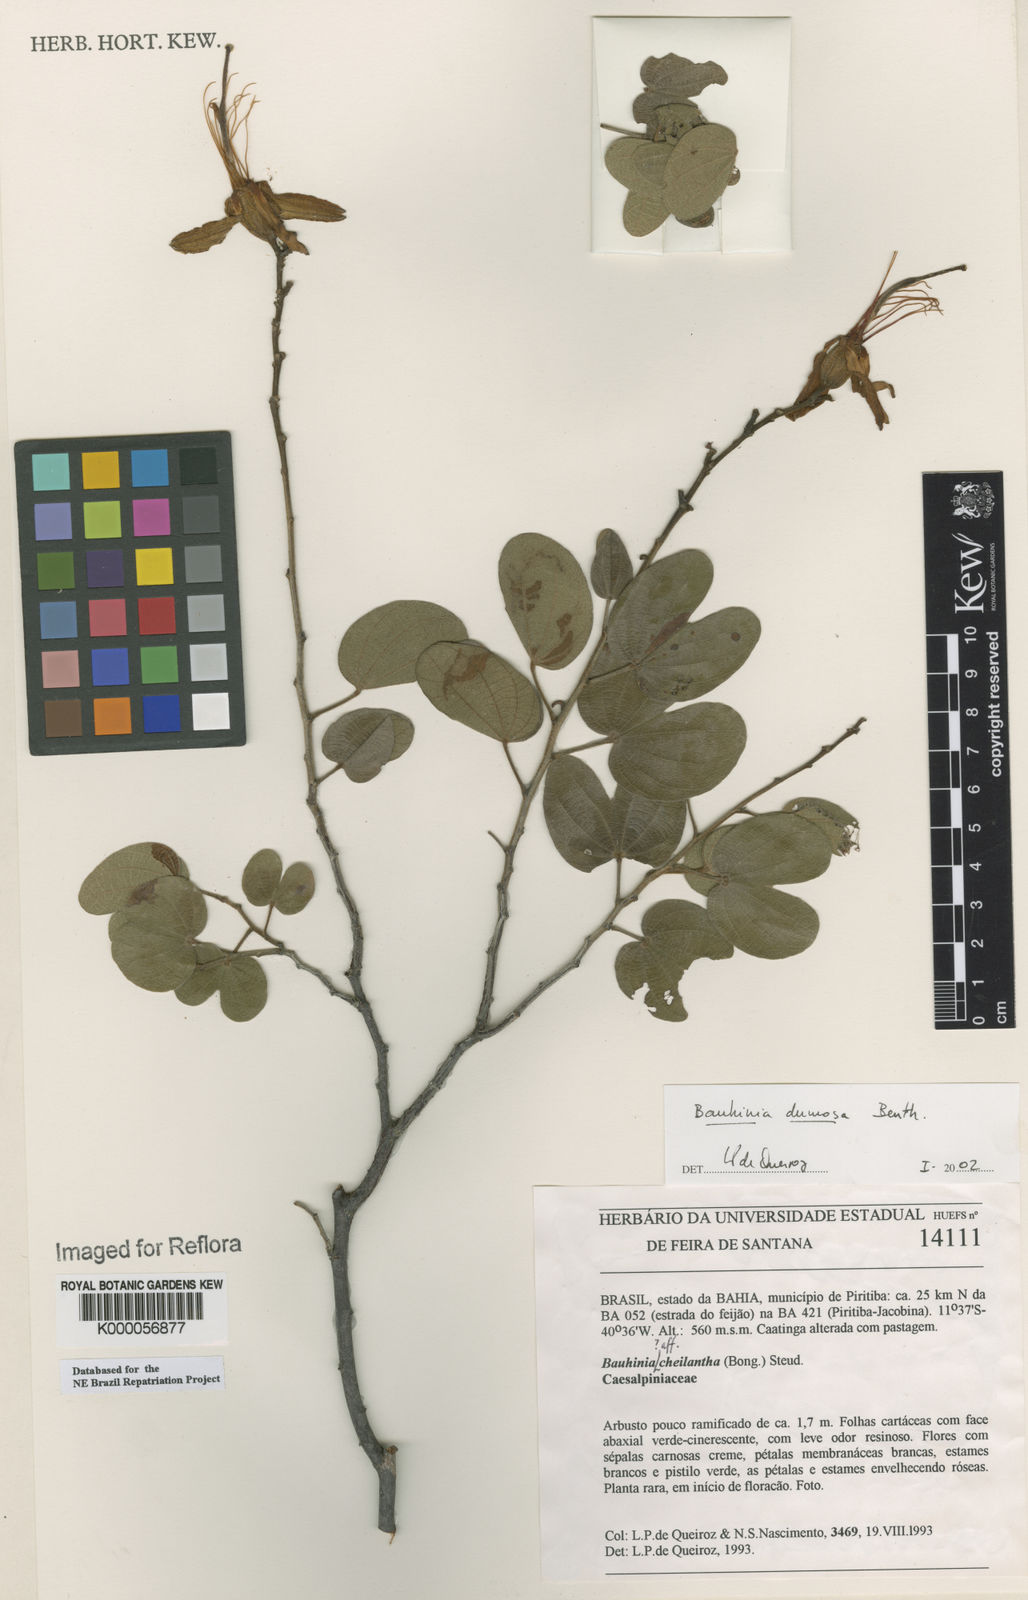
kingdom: Plantae
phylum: Tracheophyta
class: Magnoliopsida
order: Fabales
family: Fabaceae
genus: Bauhinia
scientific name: Bauhinia dumosa
